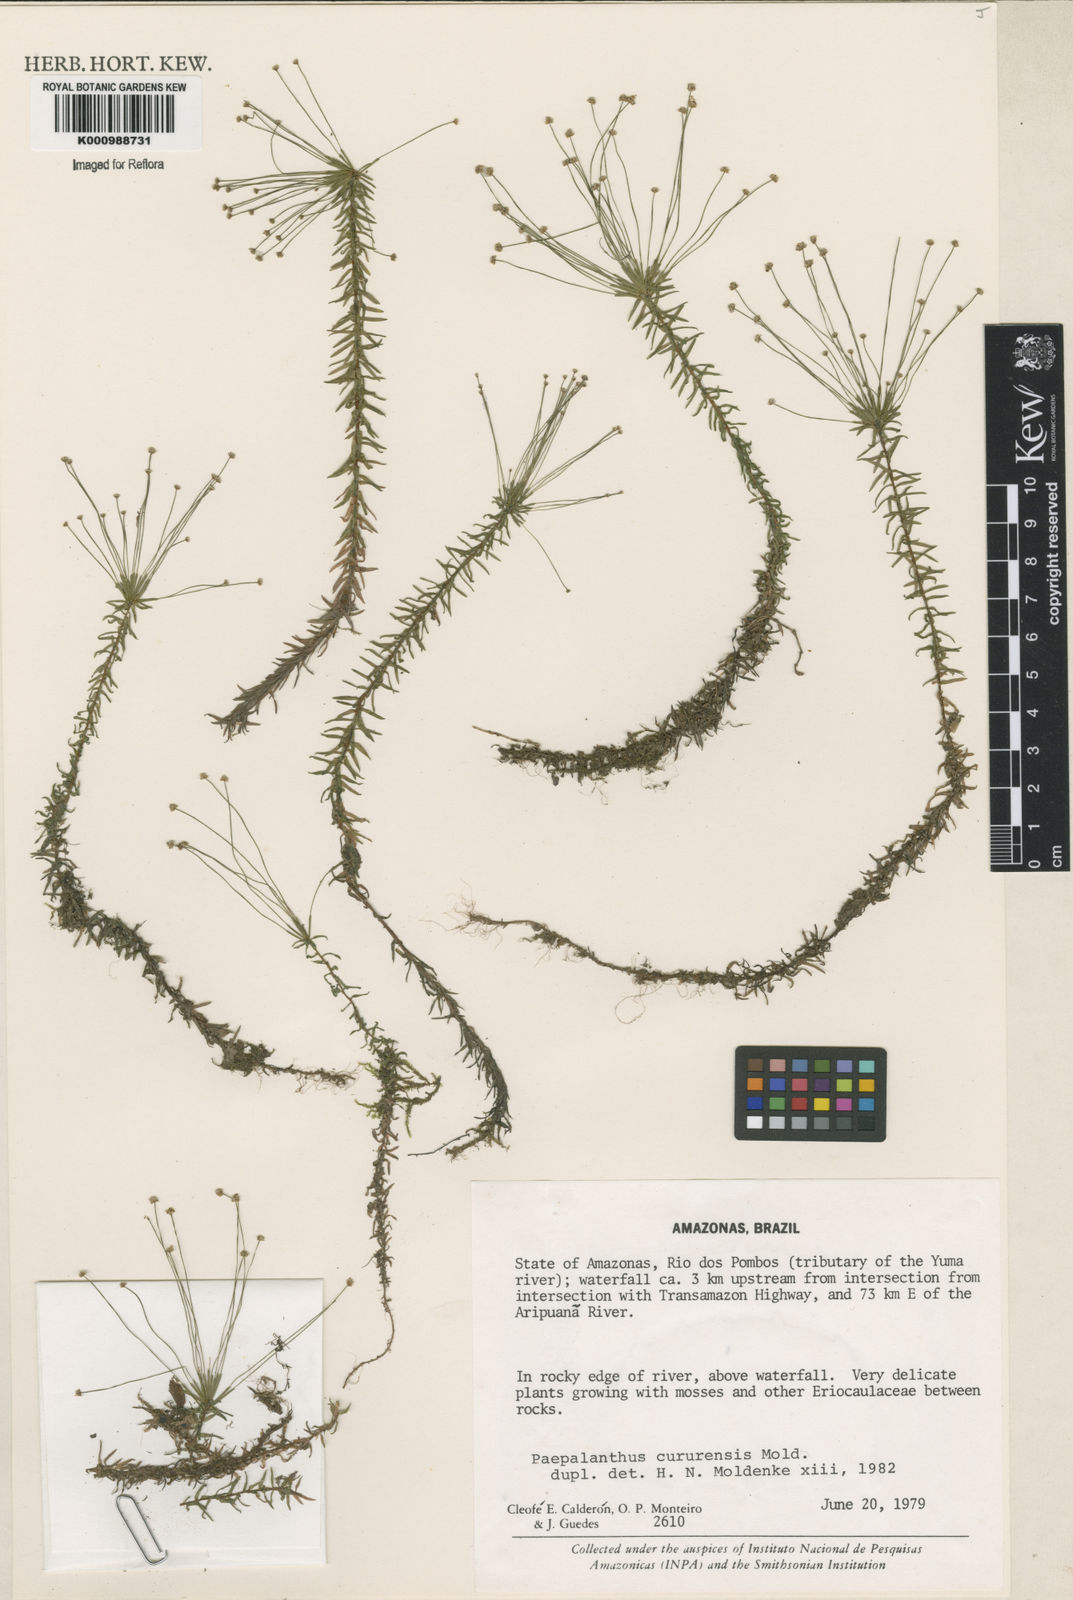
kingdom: Plantae
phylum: Tracheophyta
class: Liliopsida
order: Poales
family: Eriocaulaceae
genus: Paepalanthus
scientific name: Paepalanthus cururensis
